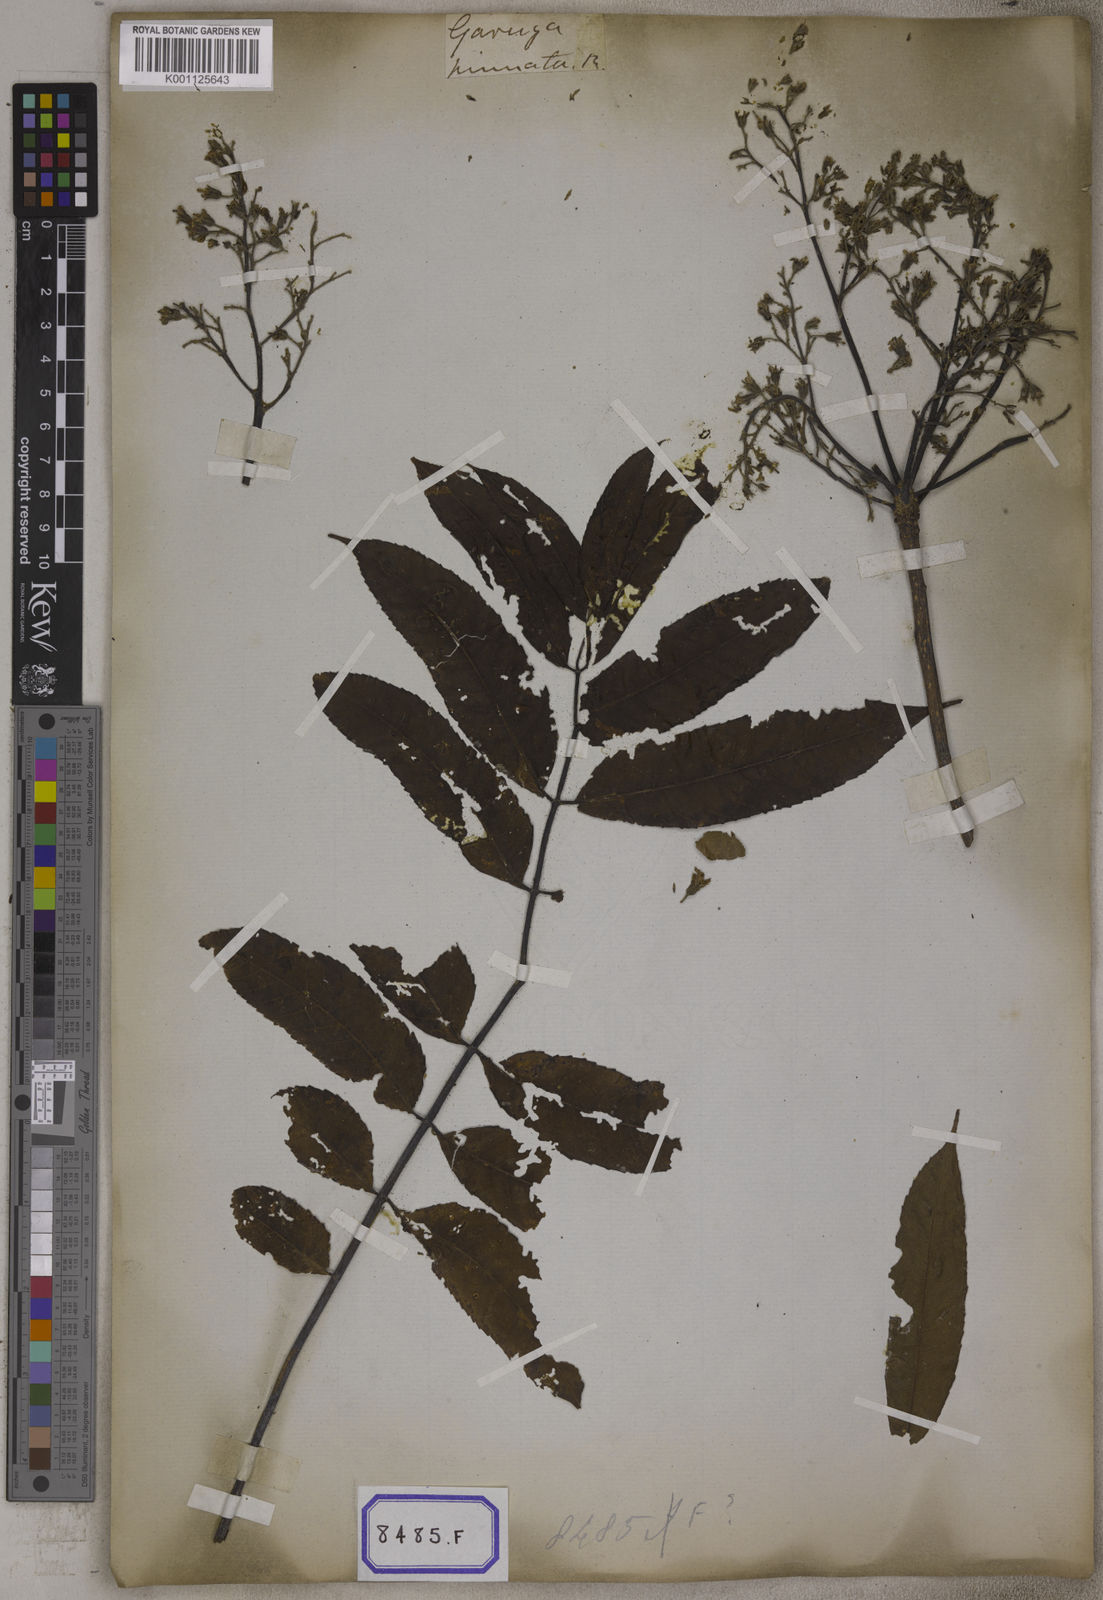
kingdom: Plantae
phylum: Tracheophyta
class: Magnoliopsida
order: Sapindales
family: Burseraceae
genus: Garuga
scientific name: Garuga pinnata
